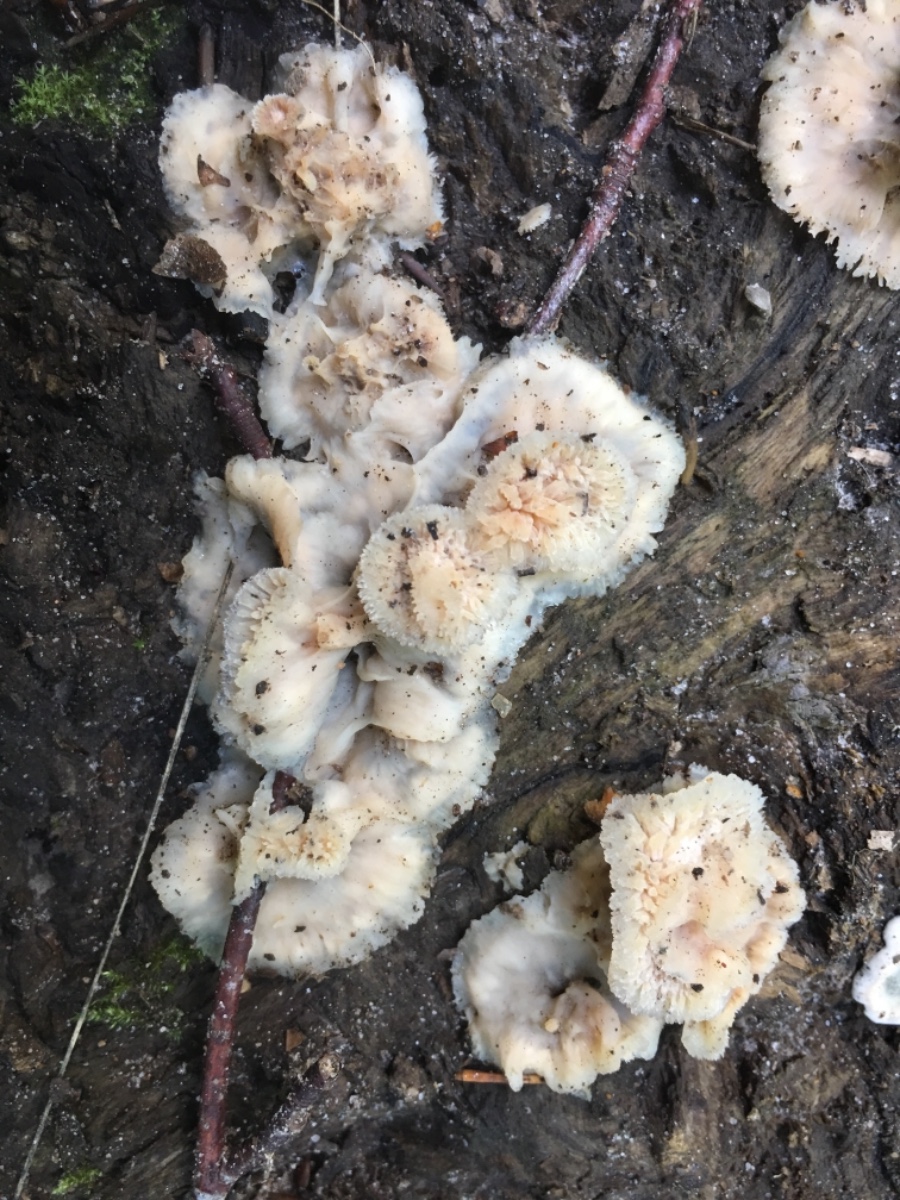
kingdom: Fungi
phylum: Basidiomycota
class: Agaricomycetes
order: Polyporales
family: Meruliaceae
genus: Phlebia
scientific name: Phlebia tremellosa
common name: bævrende åresvamp
